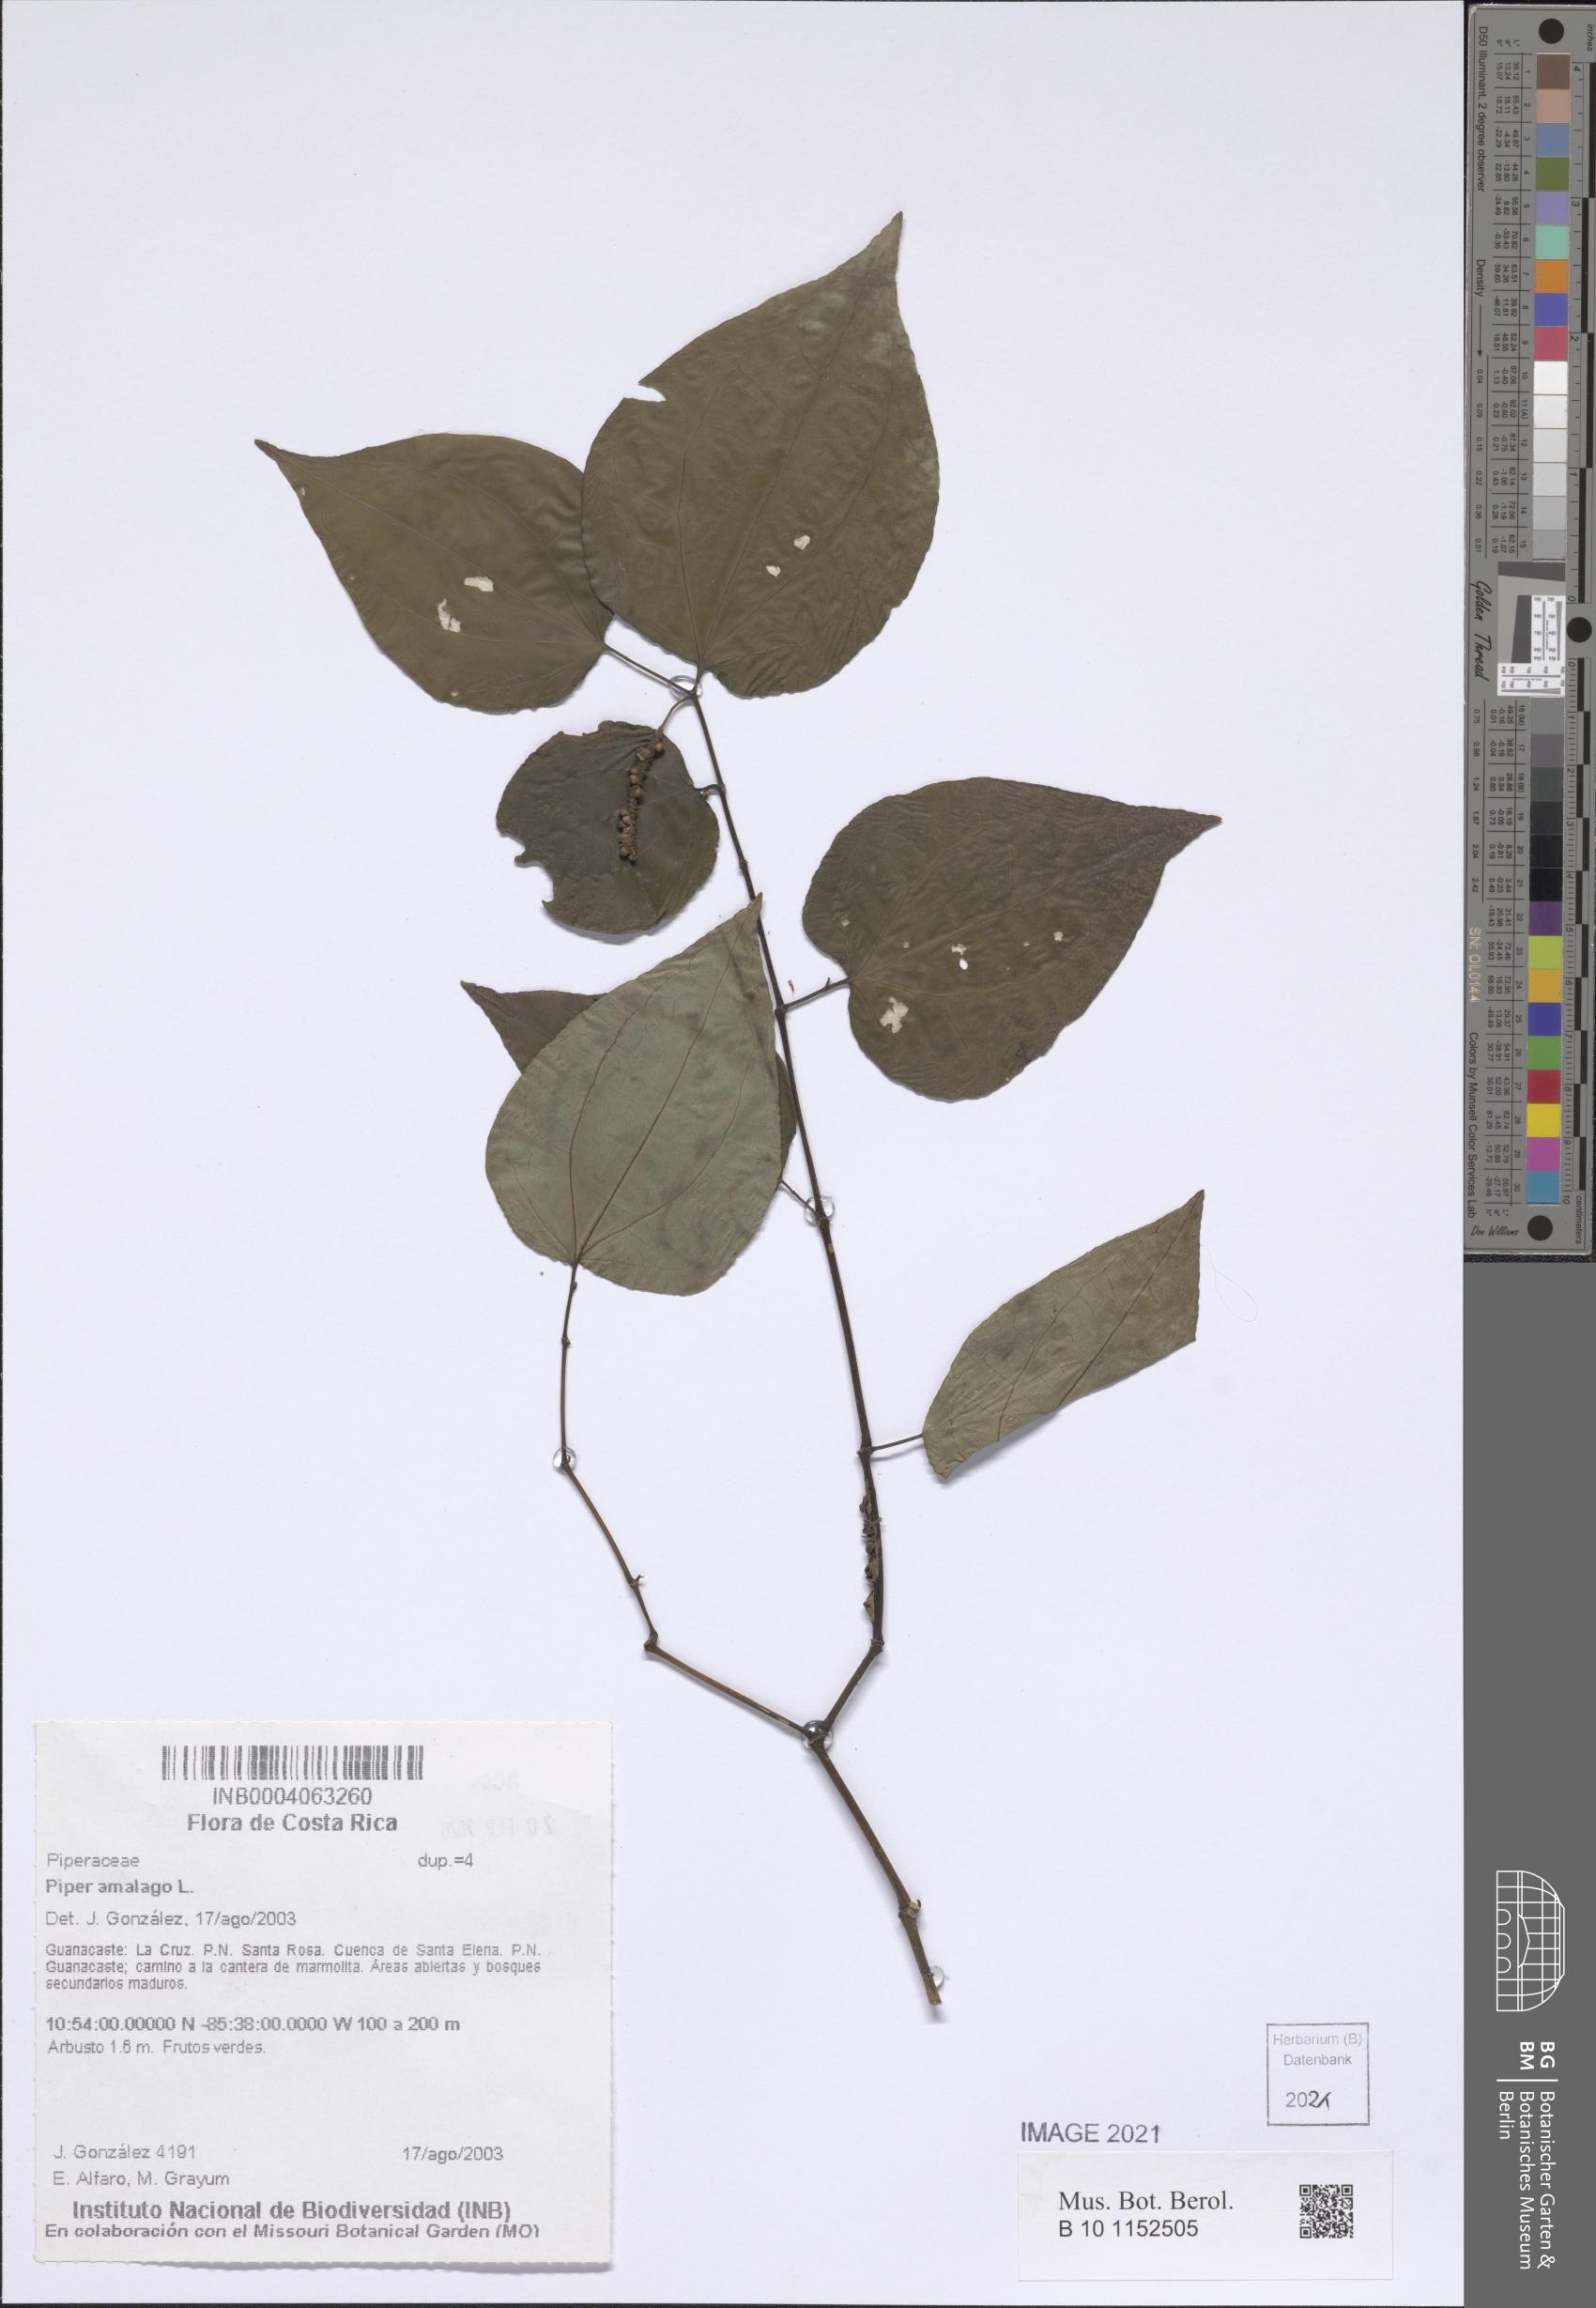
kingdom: Plantae
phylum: Tracheophyta
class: Magnoliopsida
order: Piperales
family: Piperaceae
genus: Piper
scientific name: Piper tenuipes
